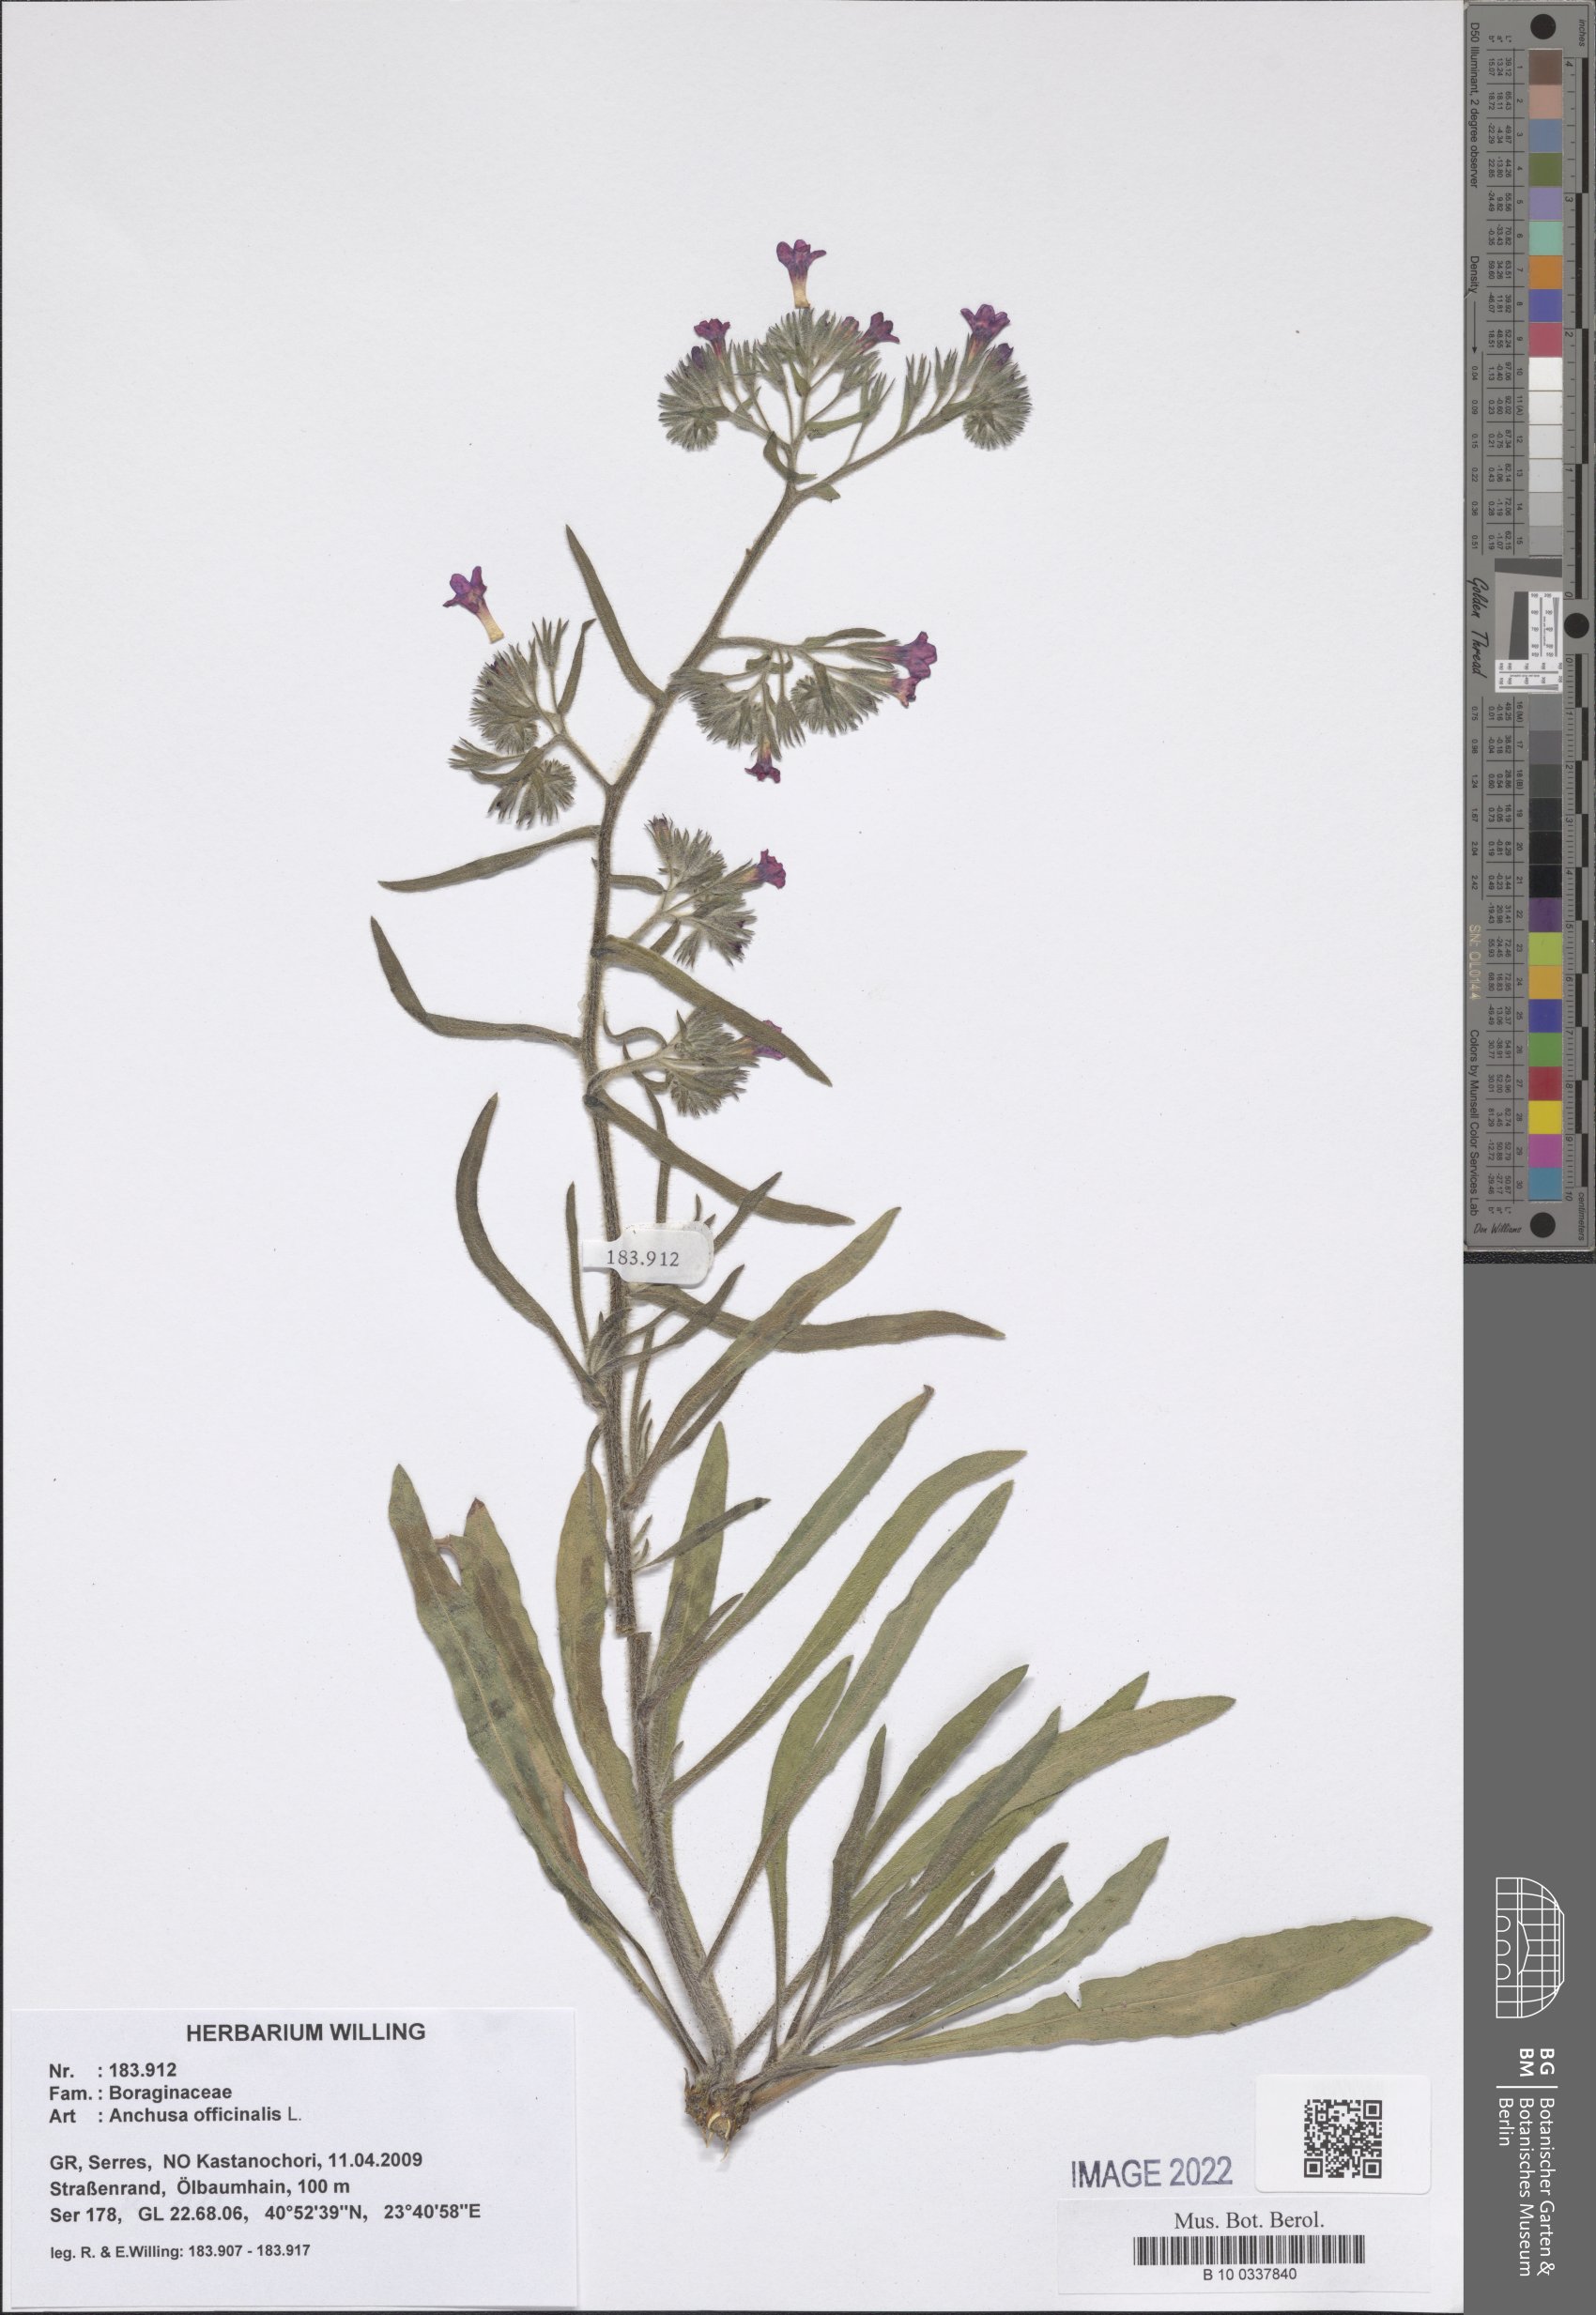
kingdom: Plantae
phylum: Tracheophyta
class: Magnoliopsida
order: Boraginales
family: Boraginaceae
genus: Anchusa
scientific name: Anchusa officinalis
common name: Alkanet
